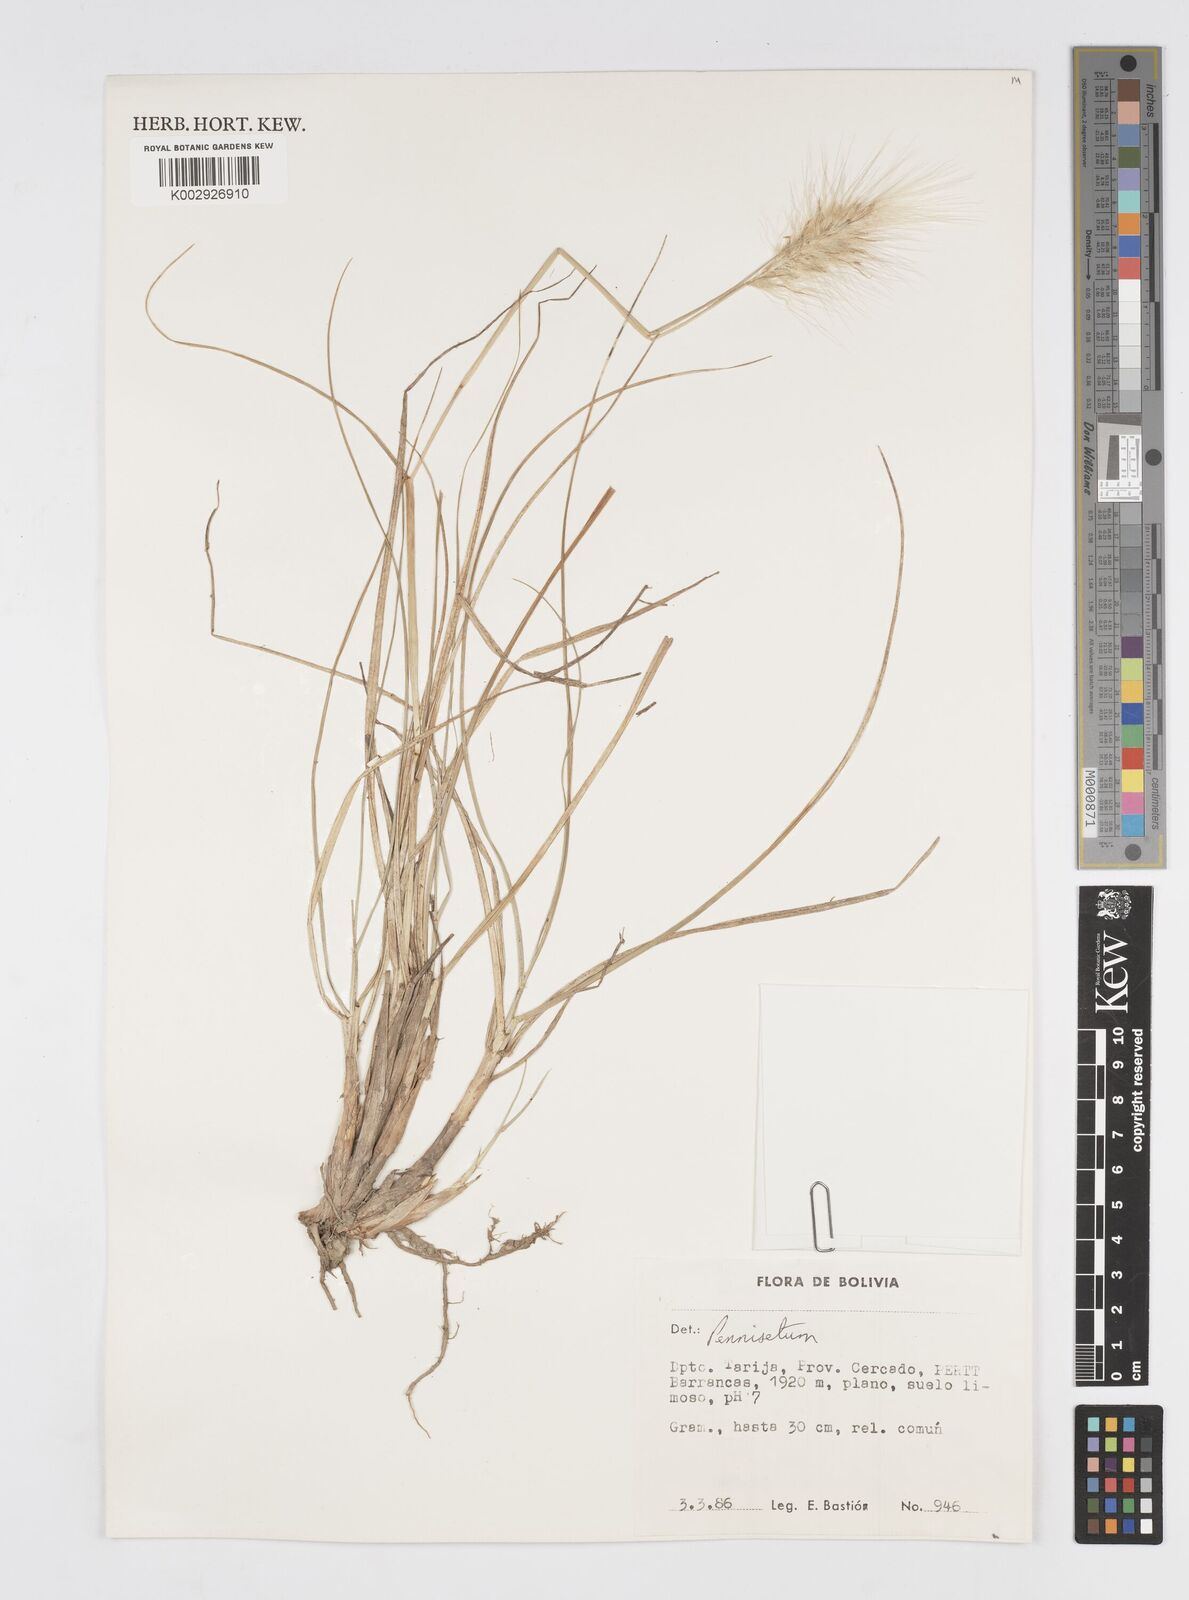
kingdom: Plantae
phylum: Tracheophyta
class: Liliopsida
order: Poales
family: Poaceae
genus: Cenchrus
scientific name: Cenchrus longisetus
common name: Feathertop
